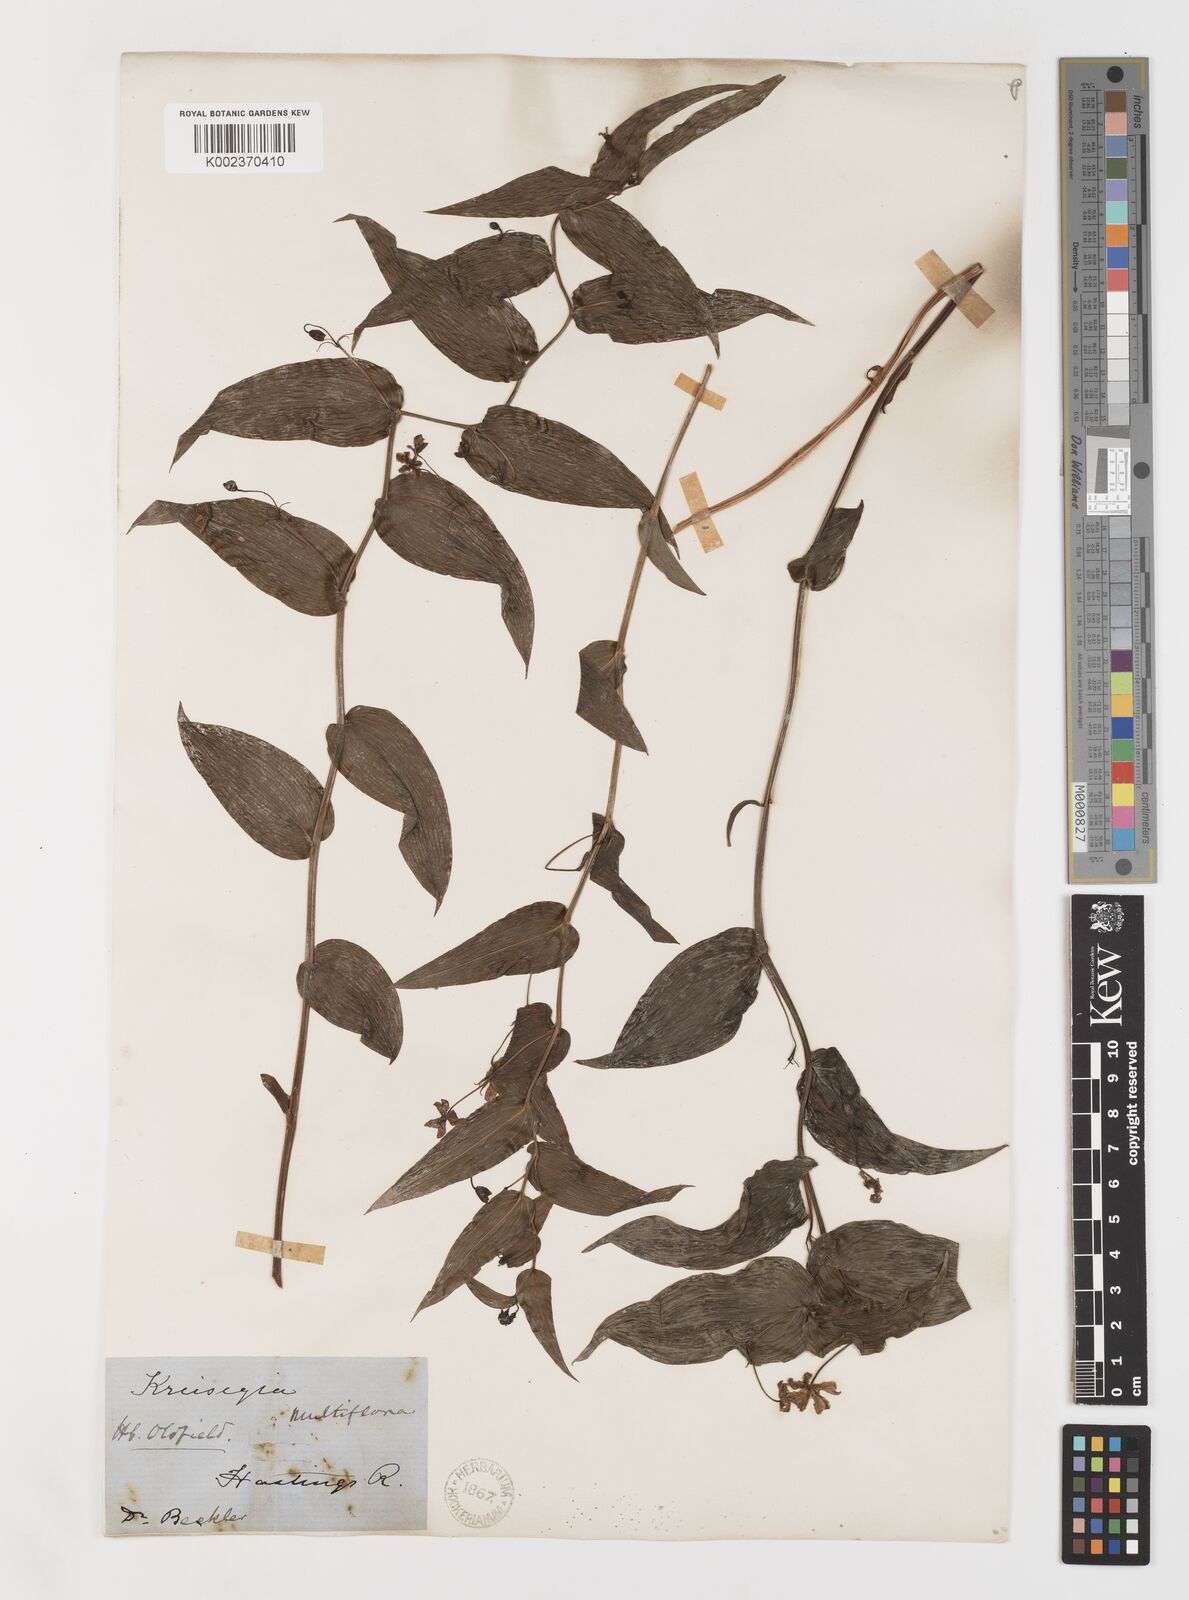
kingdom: Plantae
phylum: Tracheophyta
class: Liliopsida
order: Liliales
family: Colchicaceae
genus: Tripladenia
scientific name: Tripladenia
